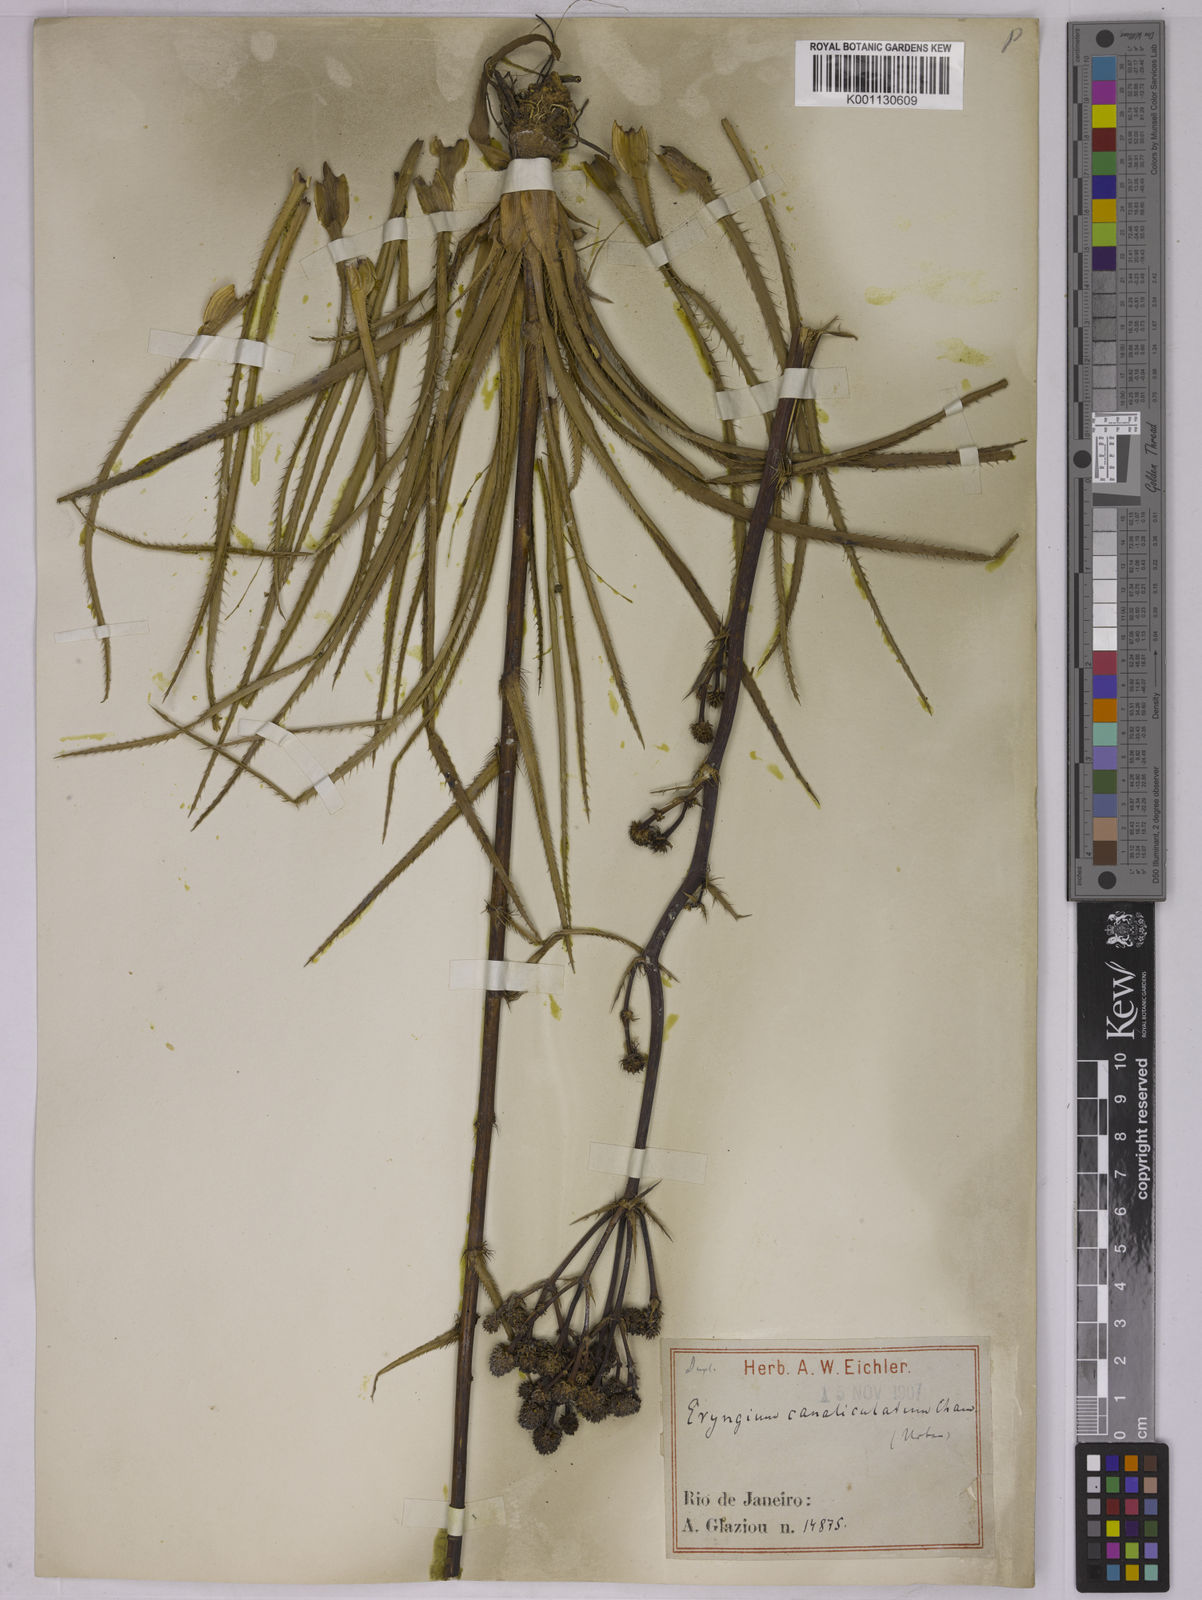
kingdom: Plantae
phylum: Tracheophyta
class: Magnoliopsida
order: Apiales
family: Apiaceae
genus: Eryngium
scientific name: Eryngium canaliculatum
